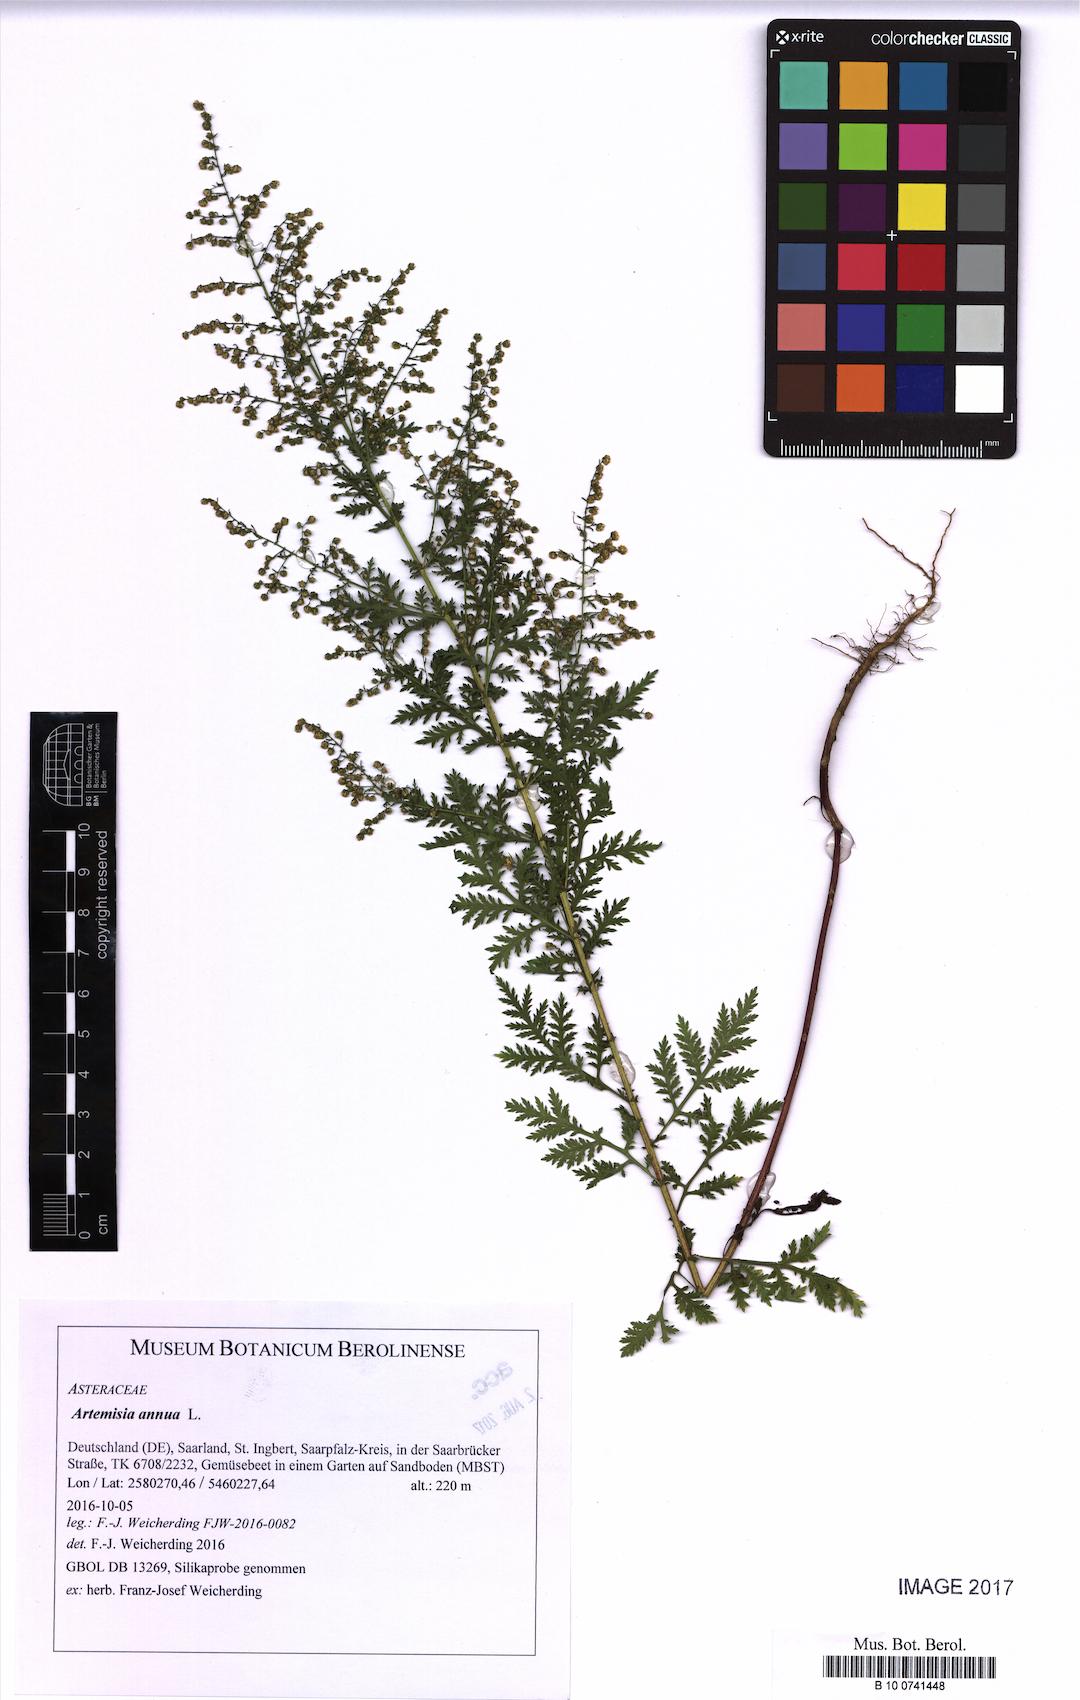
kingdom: Plantae
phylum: Tracheophyta
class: Magnoliopsida
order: Asterales
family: Asteraceae
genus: Artemisia
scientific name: Artemisia annua
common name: Sweet sagewort
